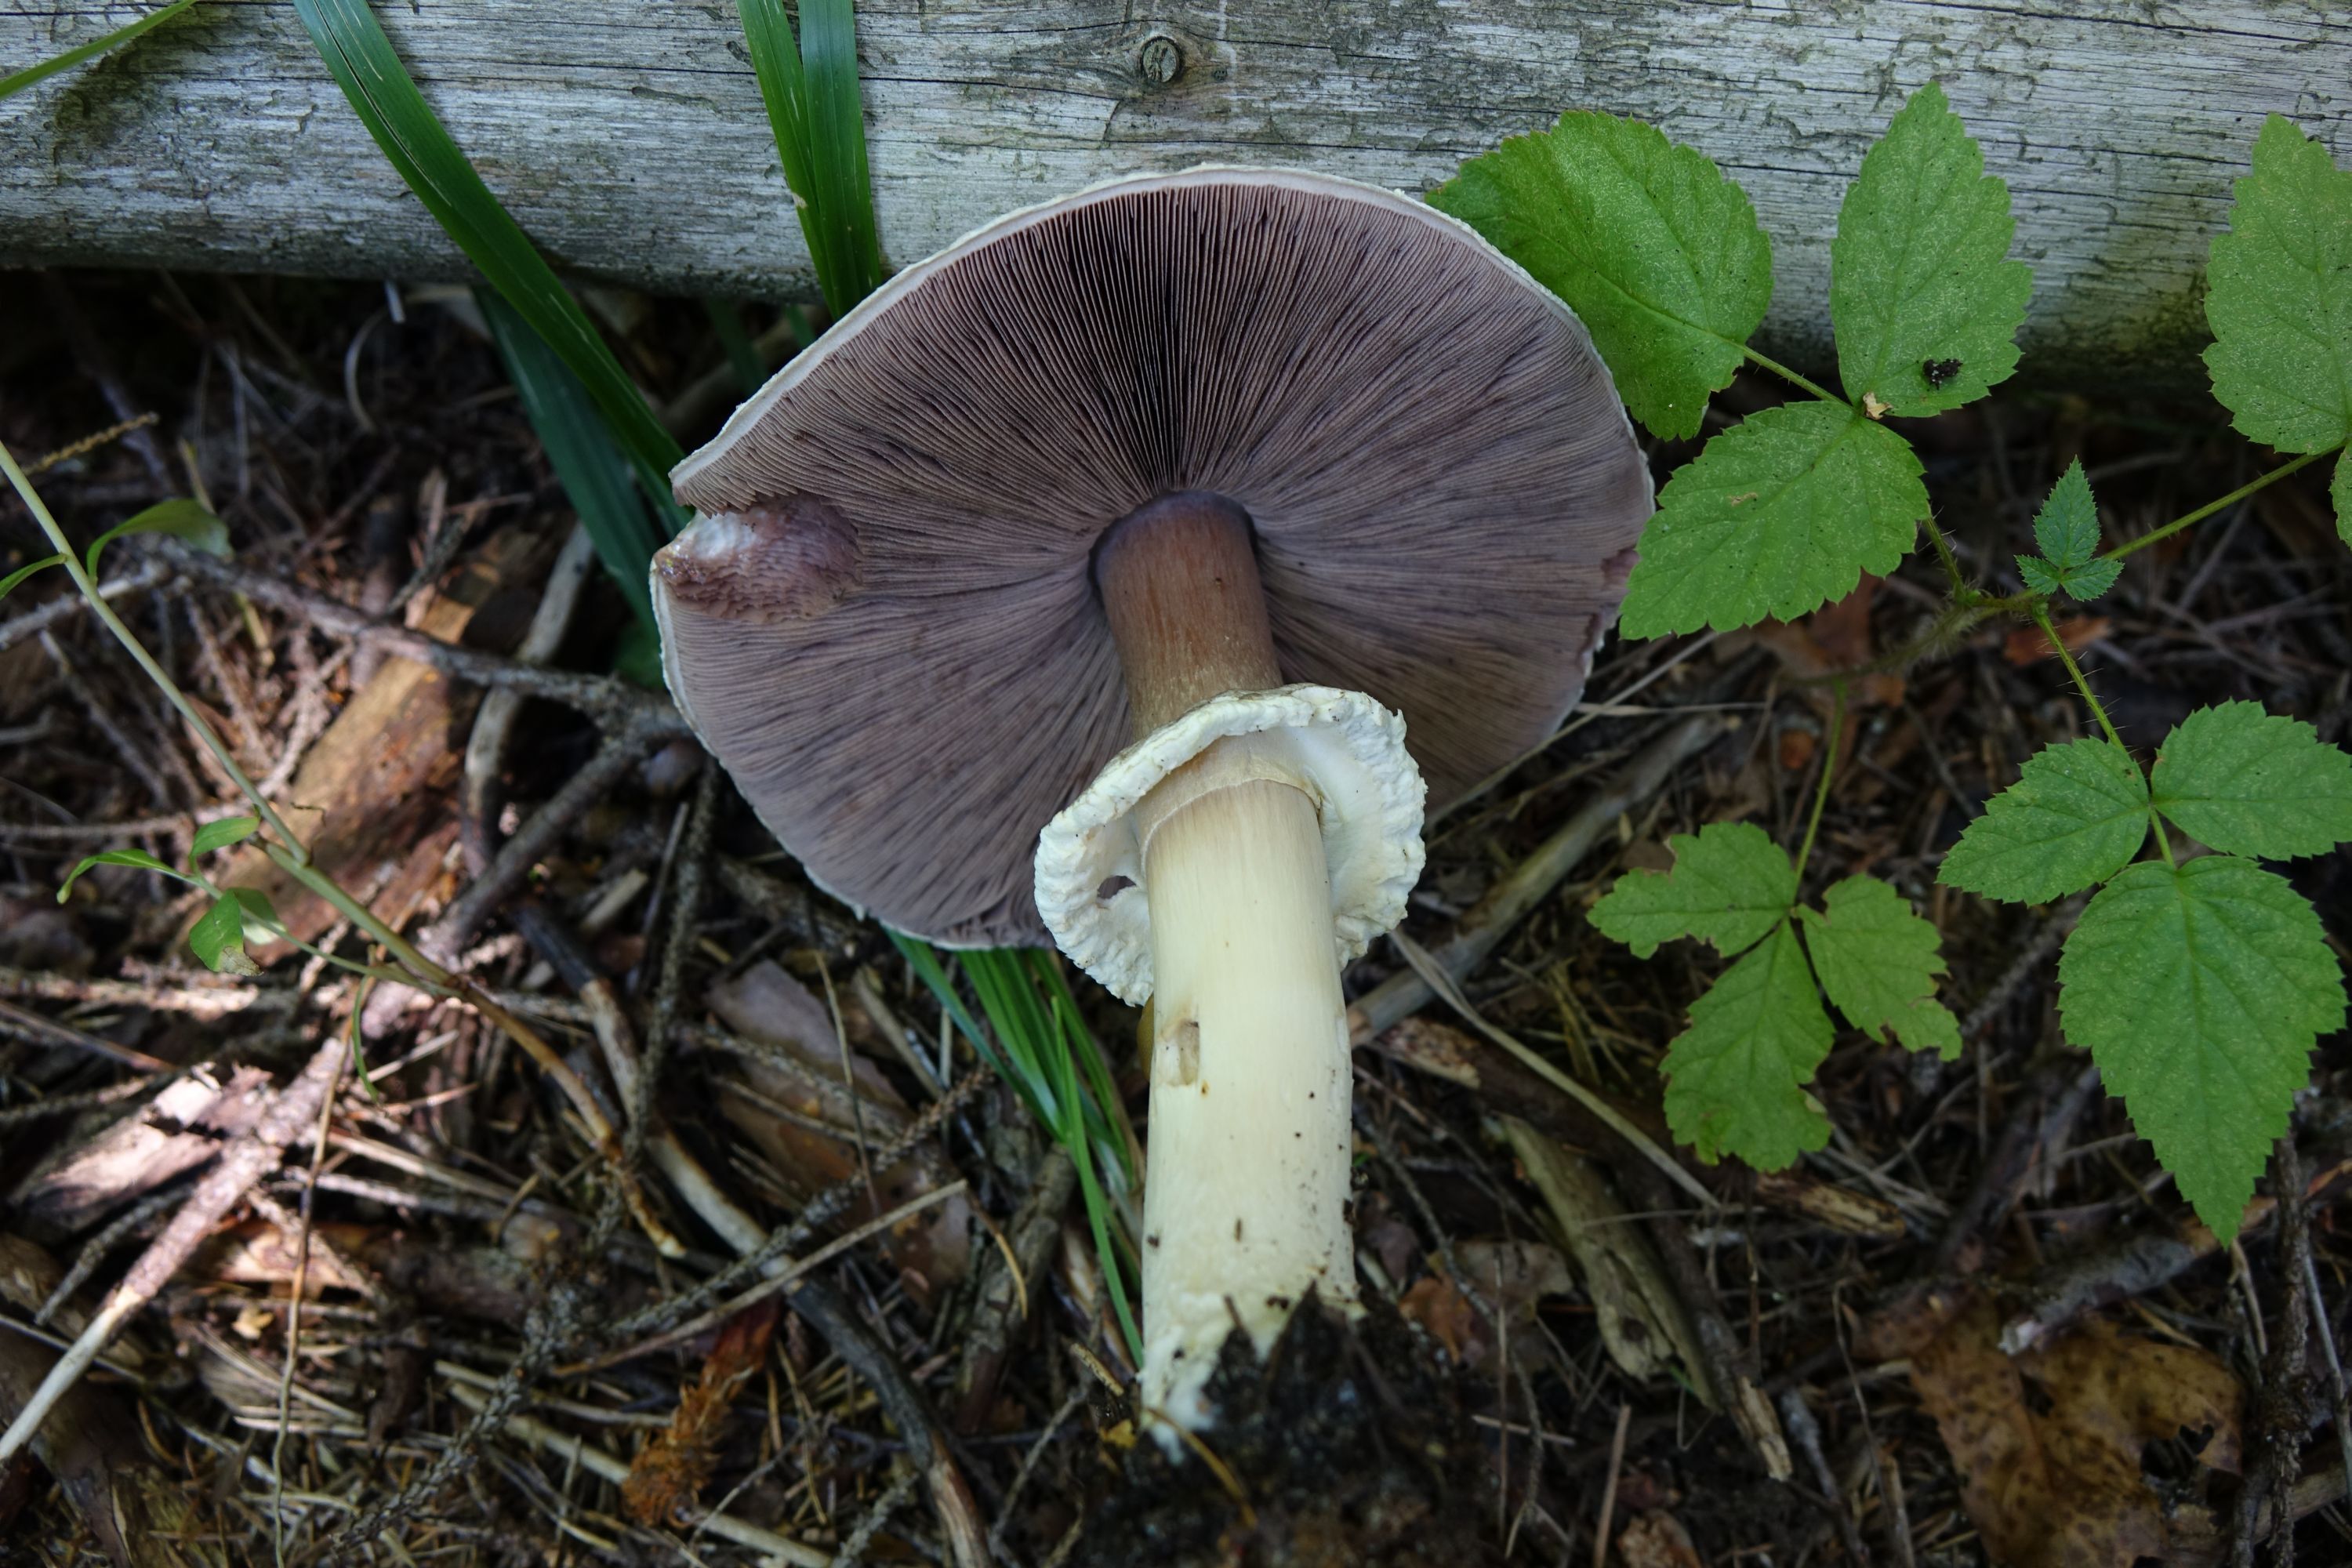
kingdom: Fungi
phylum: Basidiomycota
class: Agaricomycetes
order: Agaricales
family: Agaricaceae
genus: Agaricus
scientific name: Agaricus sylvicola
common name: Wood mushroom
